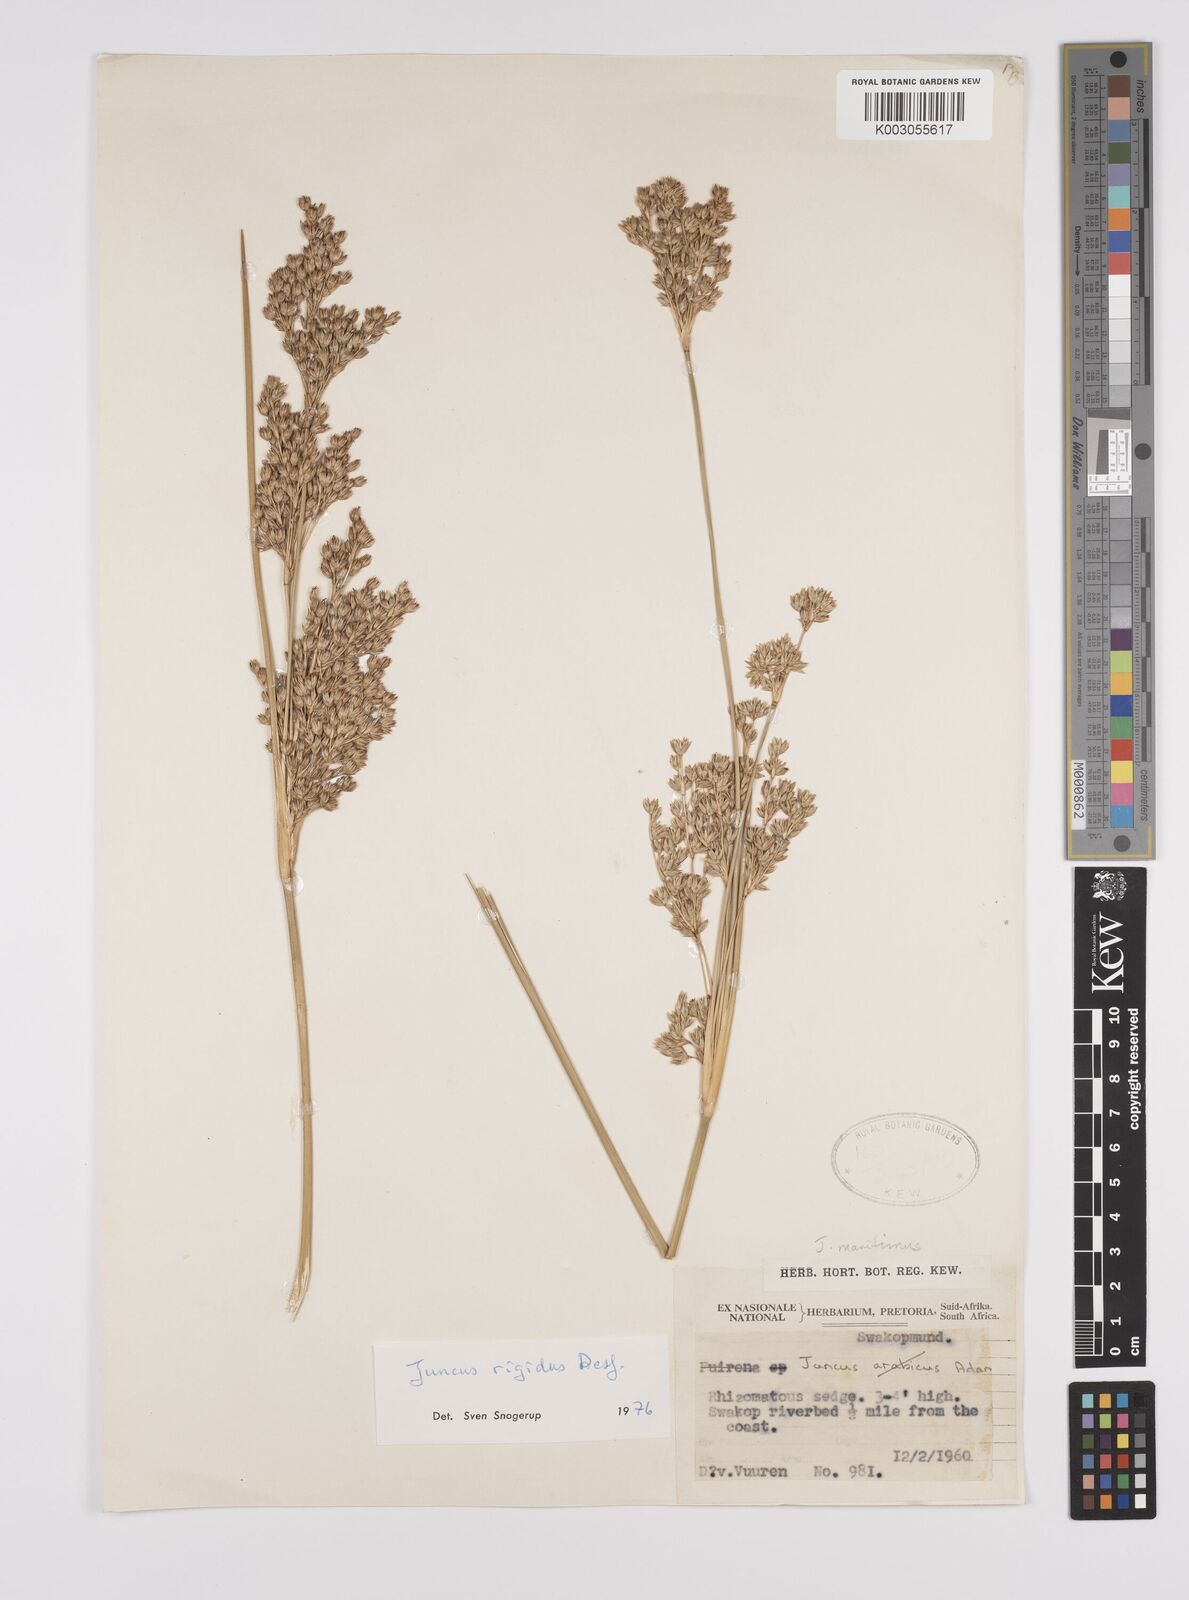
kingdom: Plantae
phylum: Tracheophyta
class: Liliopsida
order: Poales
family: Juncaceae
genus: Juncus
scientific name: Juncus rigidus
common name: Hard sea rush
